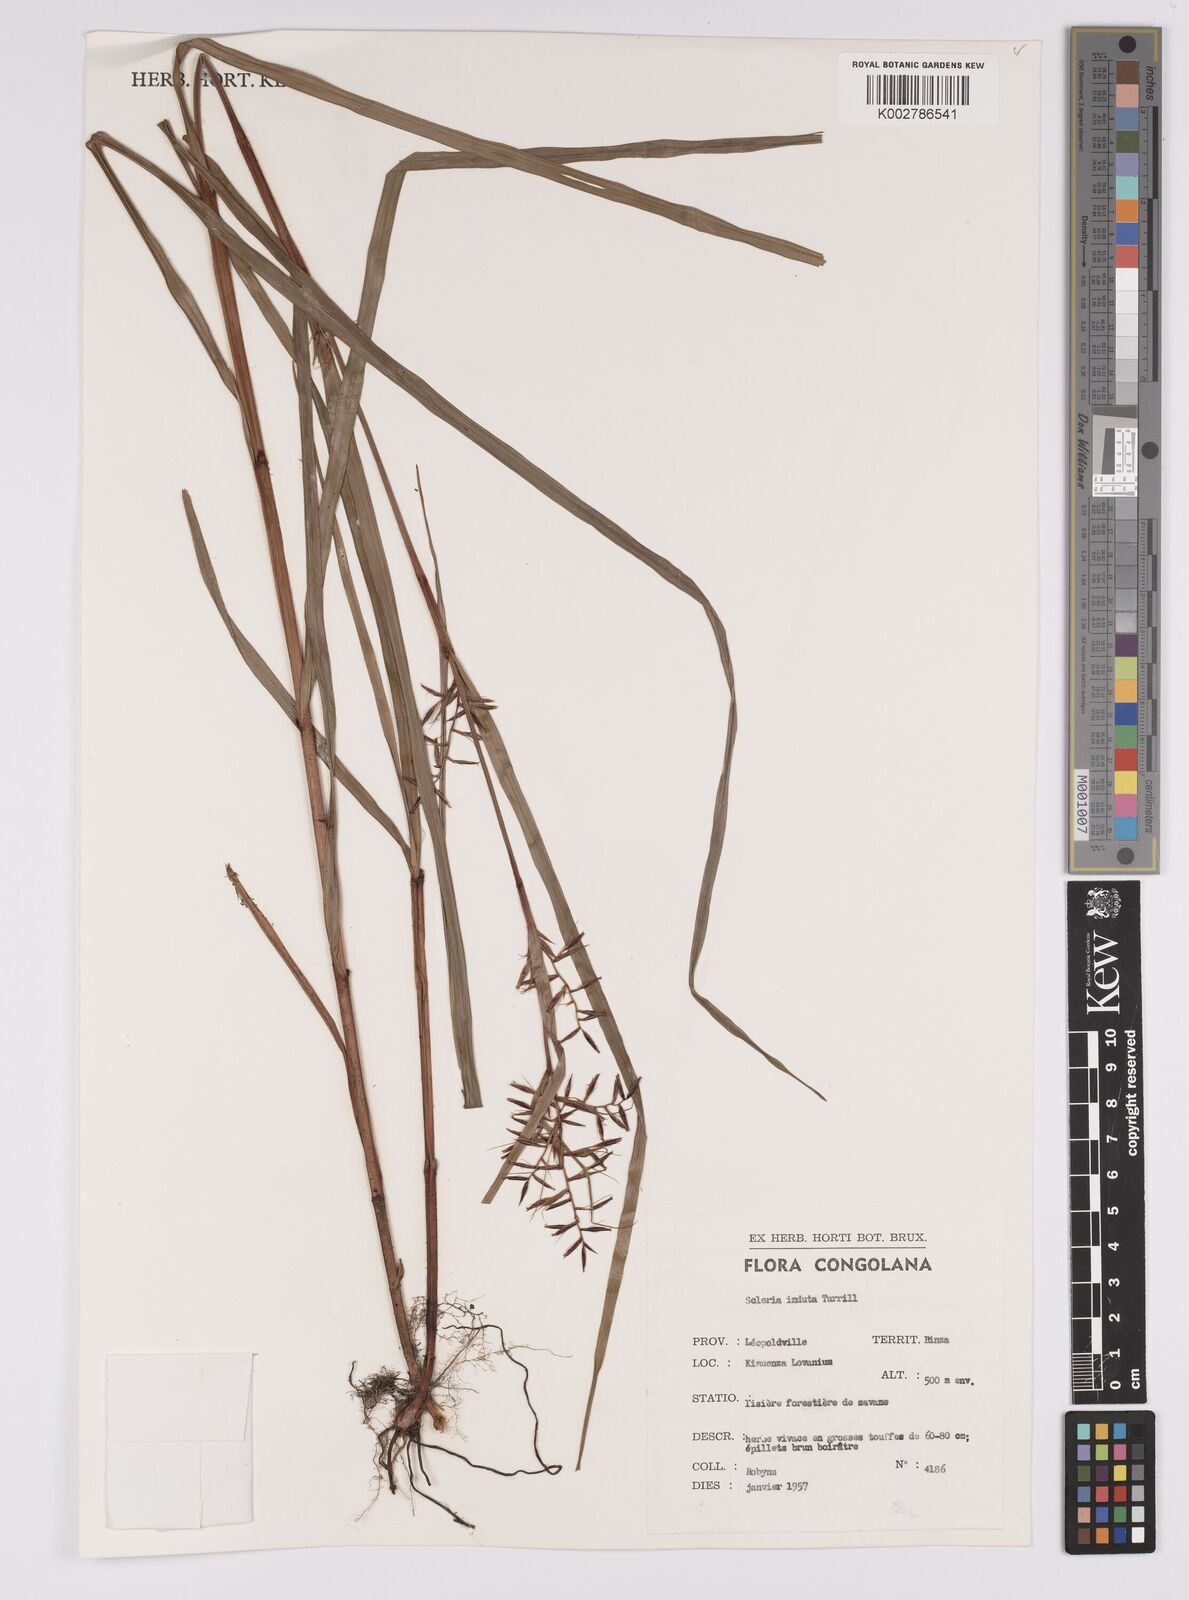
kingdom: Plantae
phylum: Tracheophyta
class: Liliopsida
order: Poales
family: Cyperaceae
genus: Scleria
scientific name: Scleria induta
